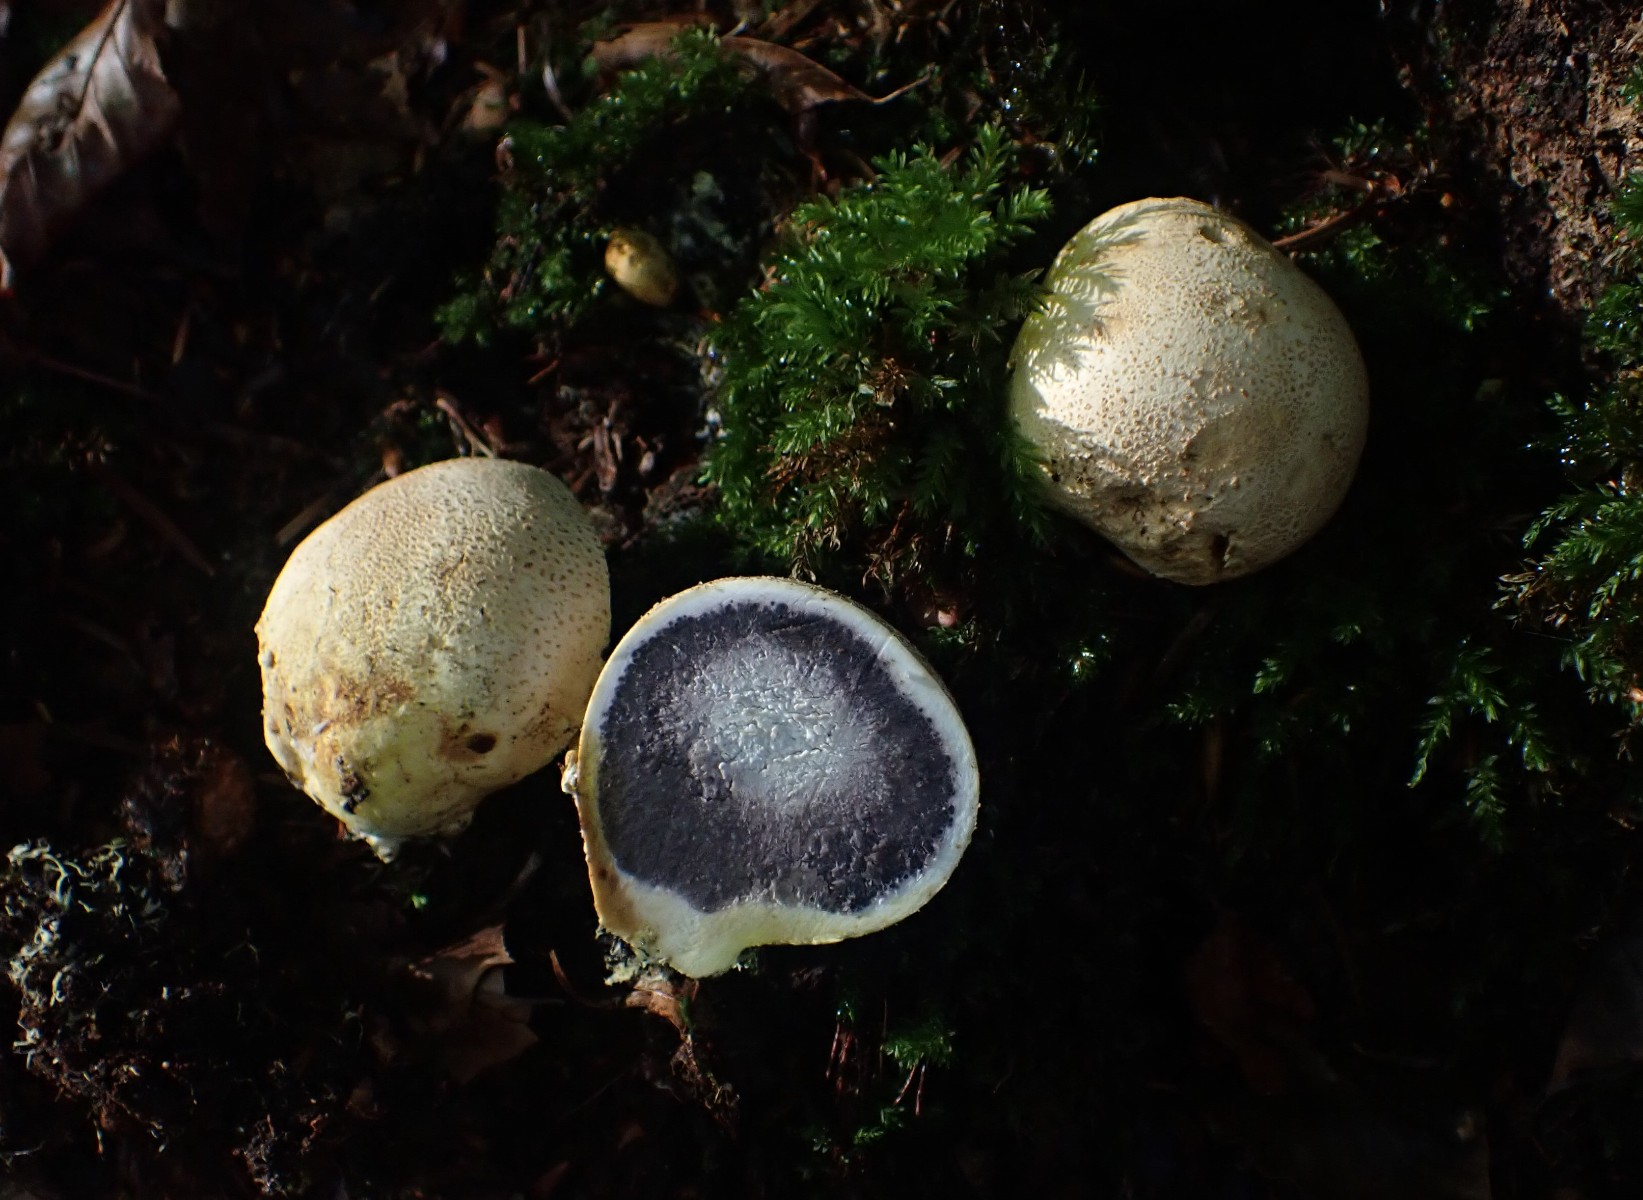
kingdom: Fungi
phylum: Basidiomycota
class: Agaricomycetes
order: Boletales
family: Sclerodermataceae
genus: Scleroderma
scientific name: Scleroderma citrinum
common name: almindelig bruskbold
